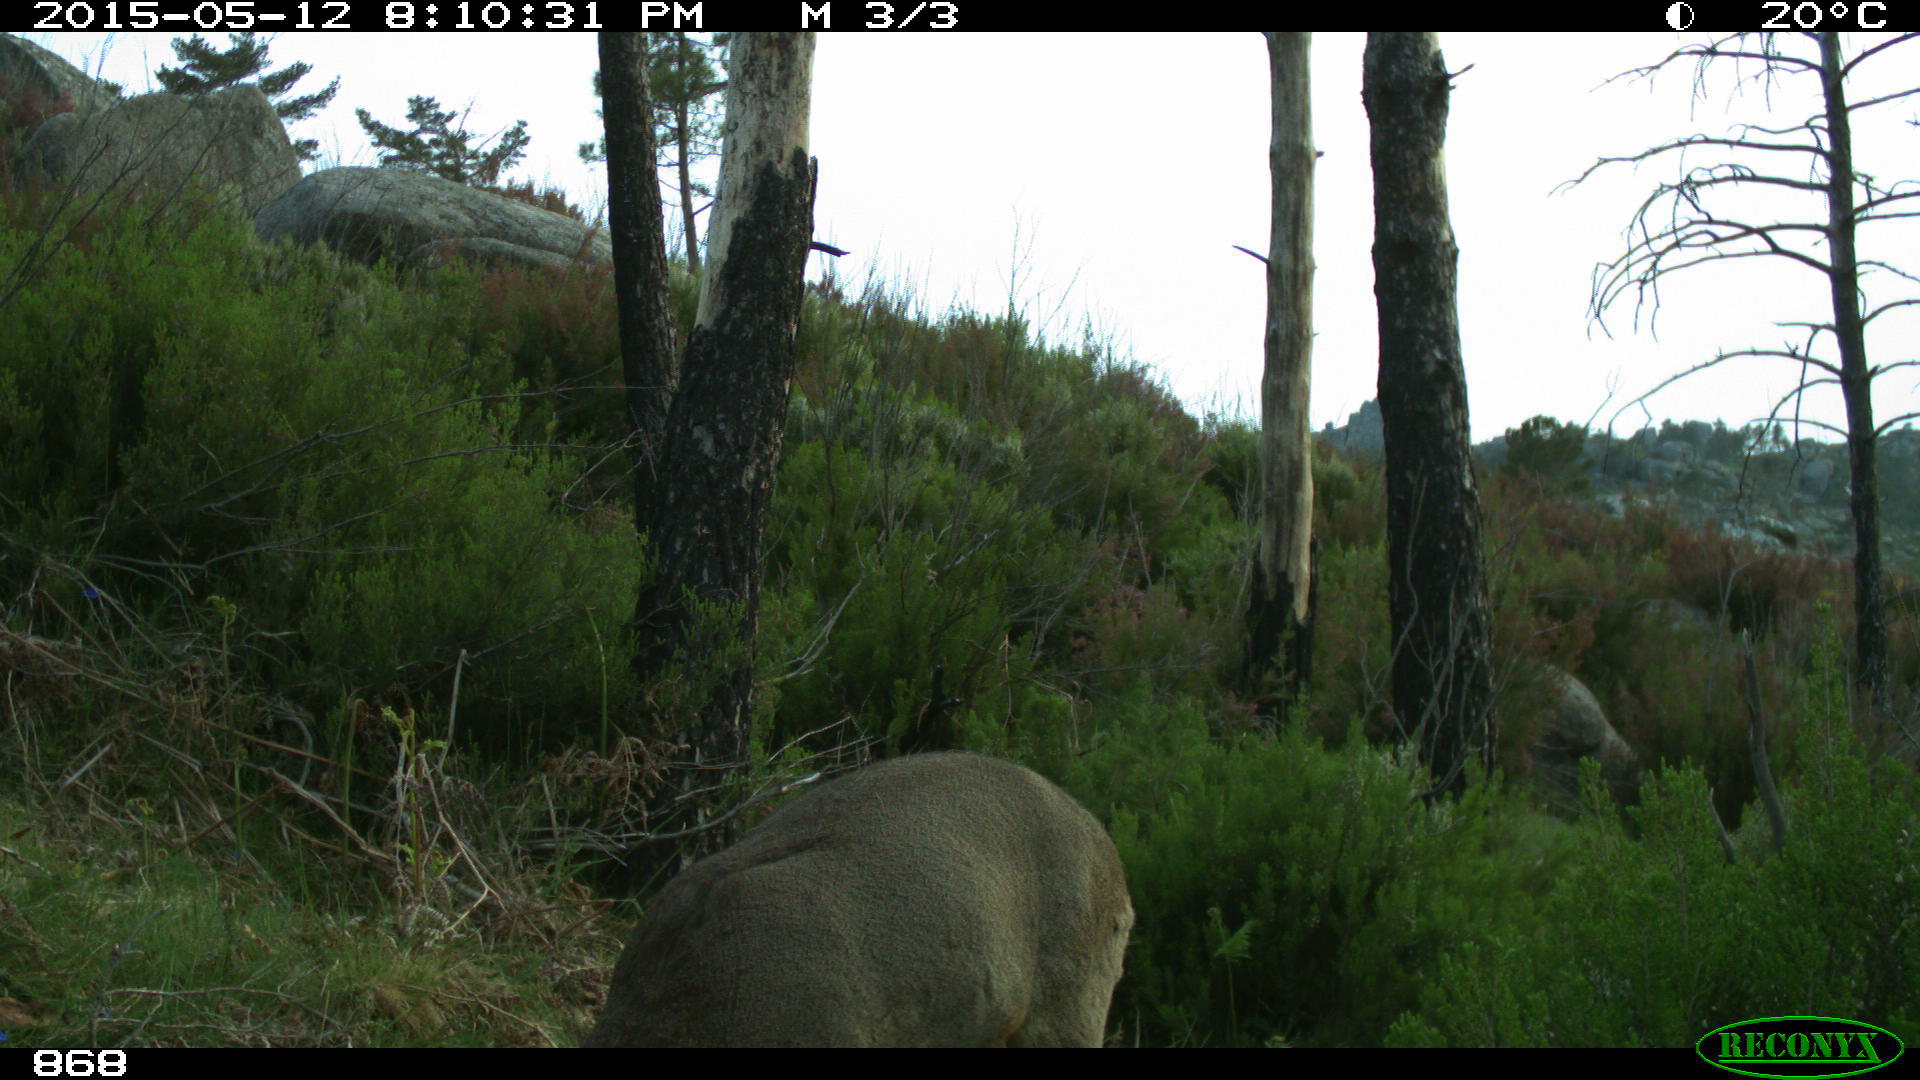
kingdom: Animalia
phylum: Chordata
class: Mammalia
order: Artiodactyla
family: Cervidae
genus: Capreolus
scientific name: Capreolus capreolus
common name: Western roe deer
